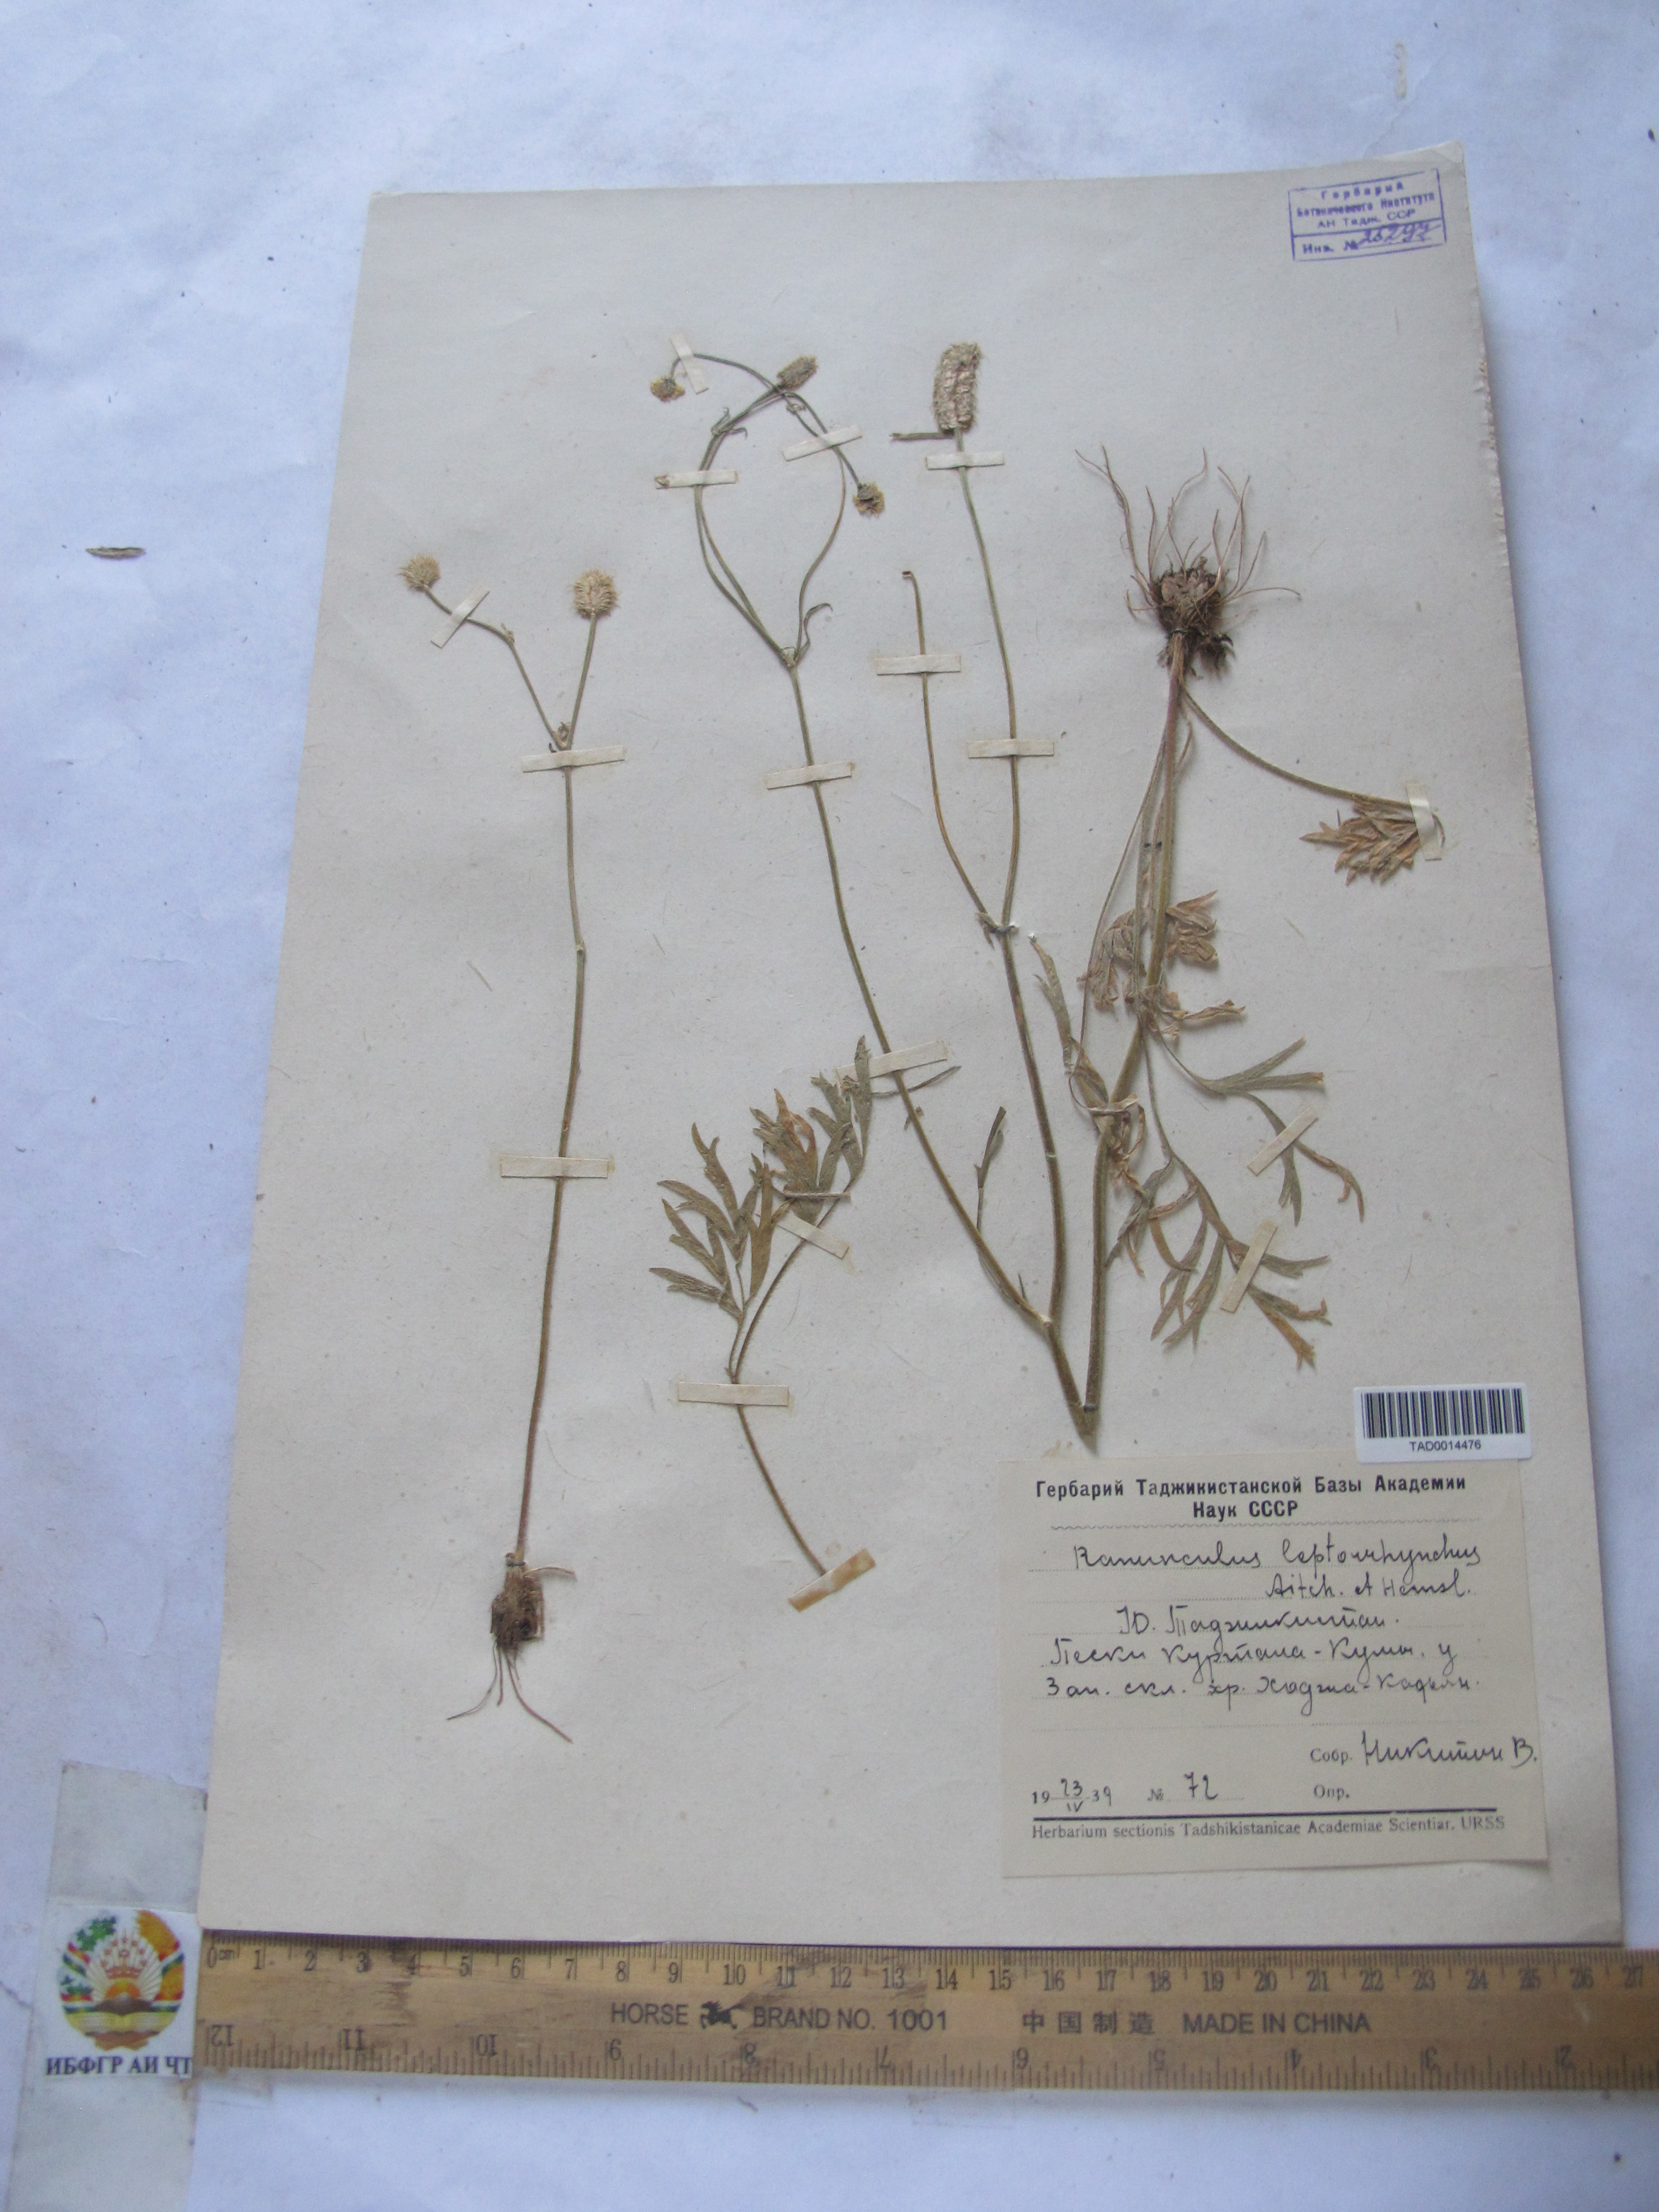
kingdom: Plantae
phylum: Tracheophyta
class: Magnoliopsida
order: Ranunculales
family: Ranunculaceae
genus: Ranunculus
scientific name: Ranunculus leptorrhynchus
